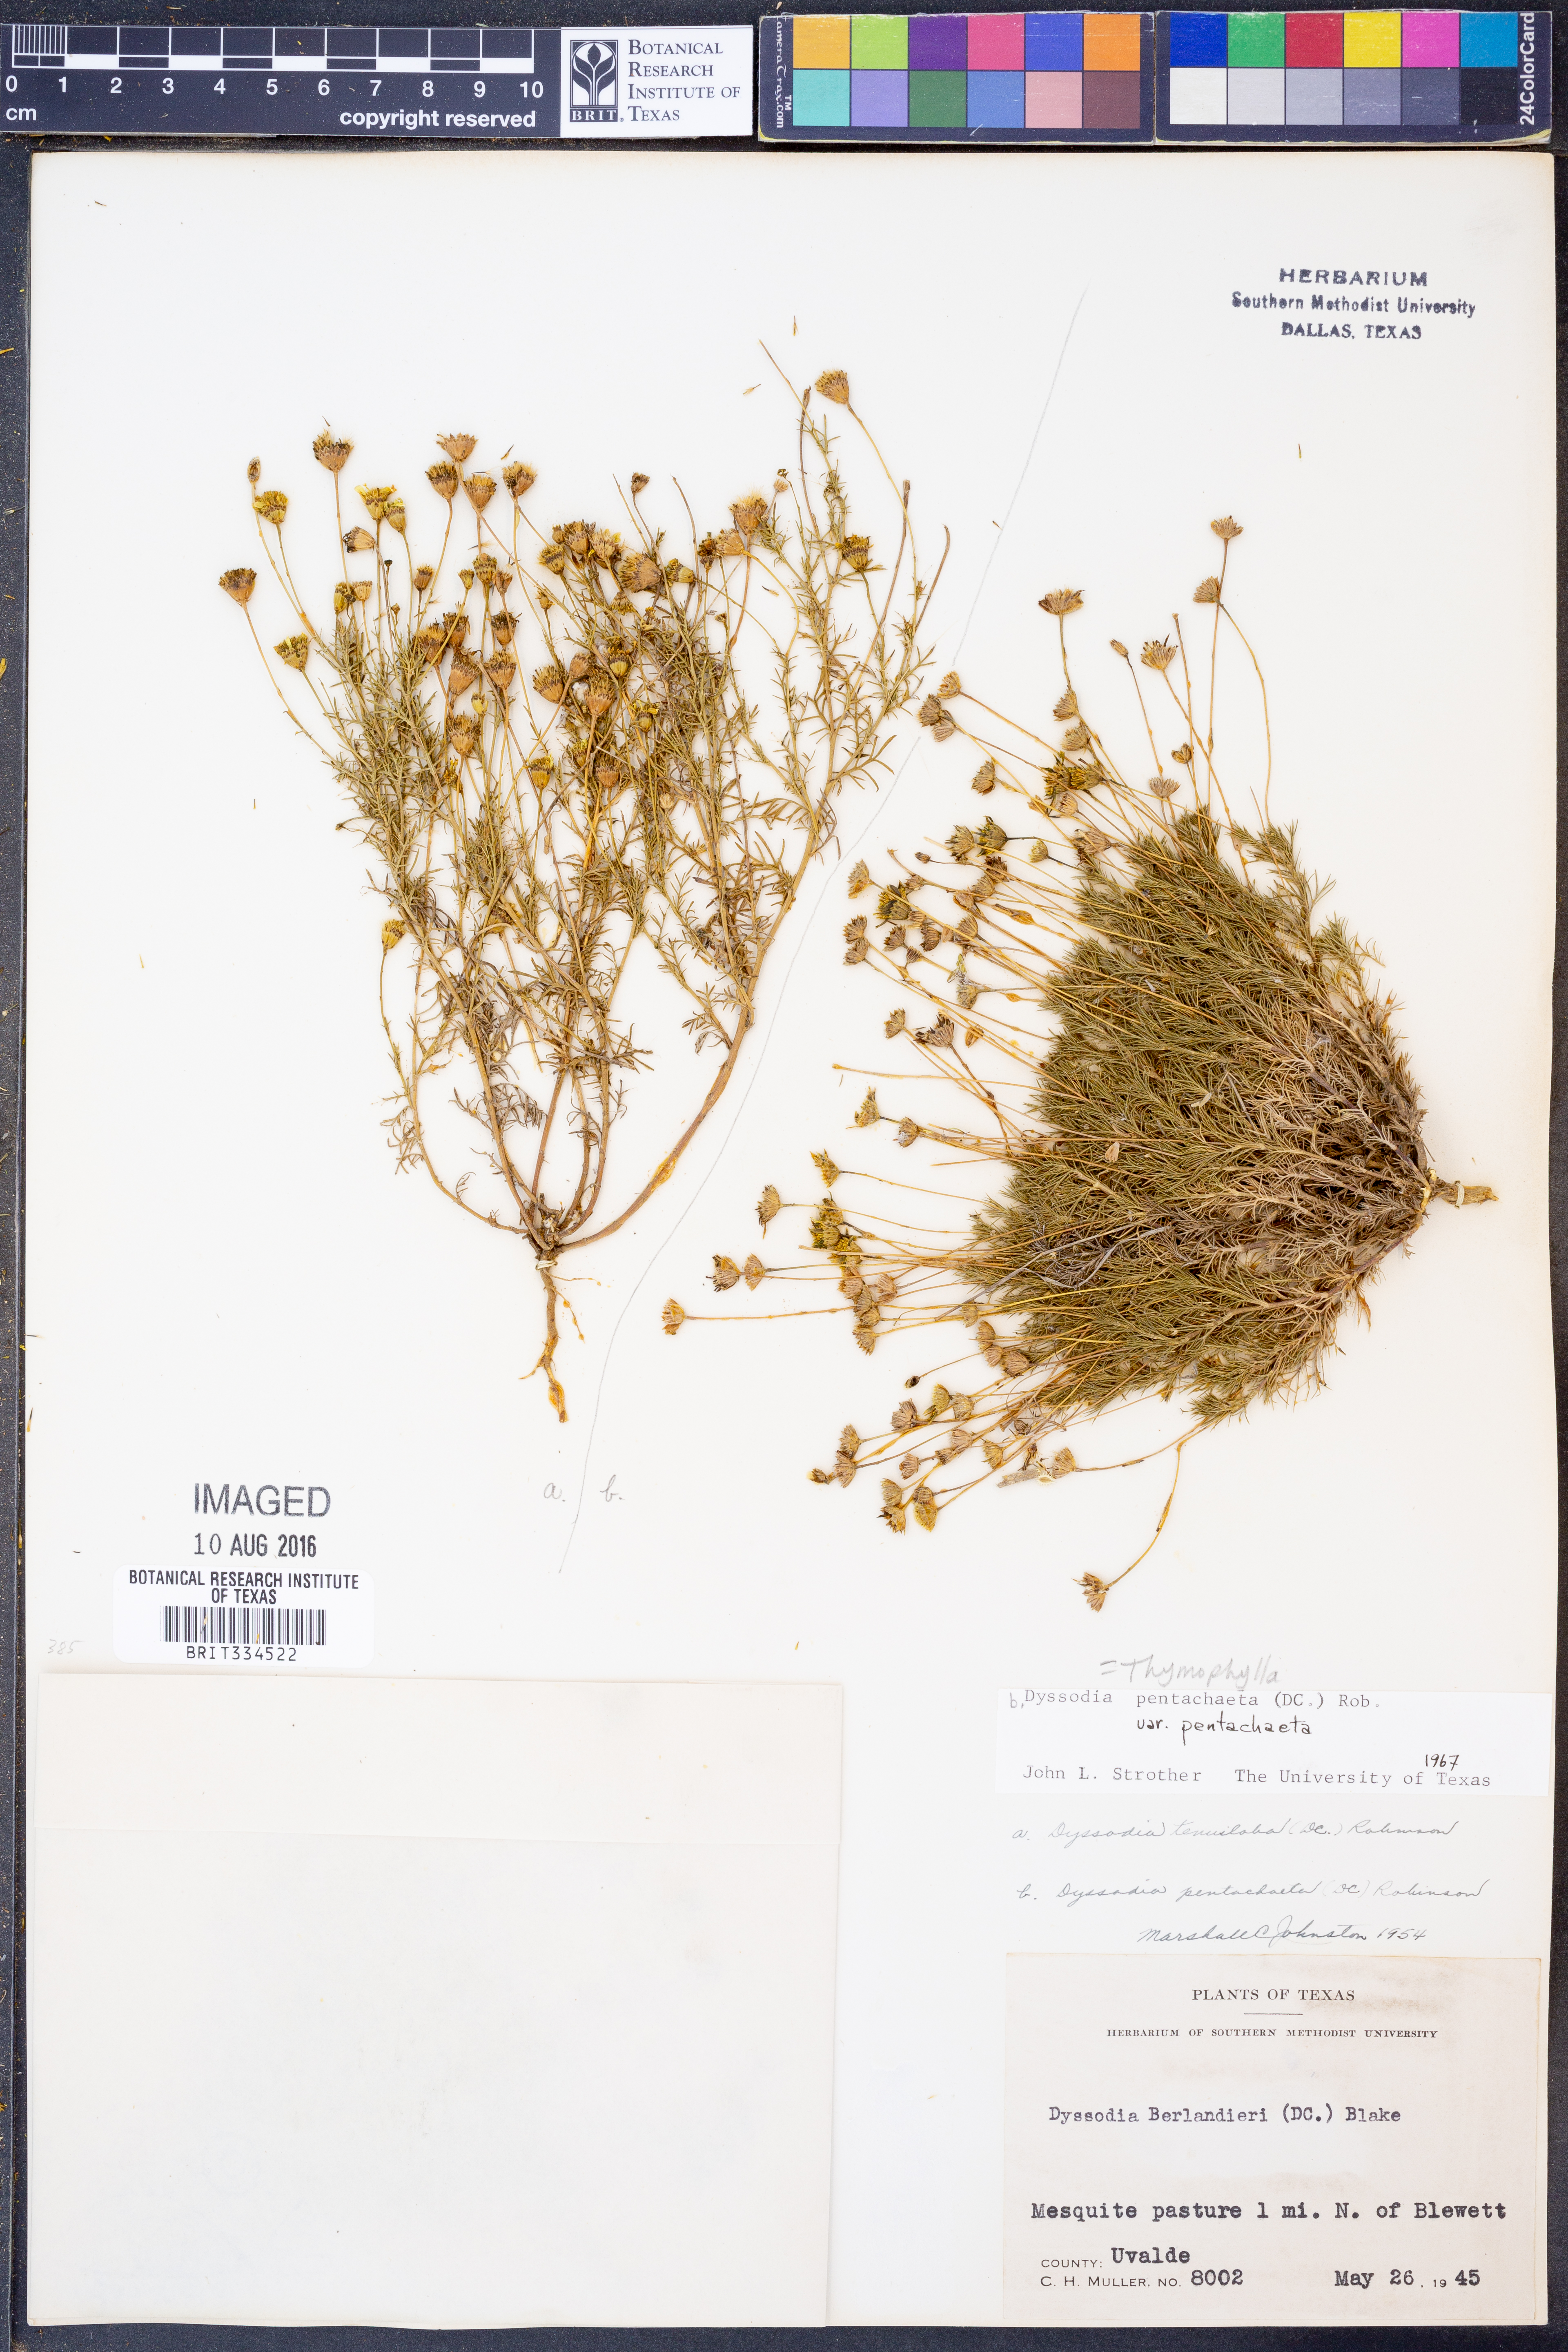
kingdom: Plantae
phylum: Tracheophyta
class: Magnoliopsida
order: Asterales
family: Asteraceae
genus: Thymophylla
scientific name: Thymophylla pentachaeta
